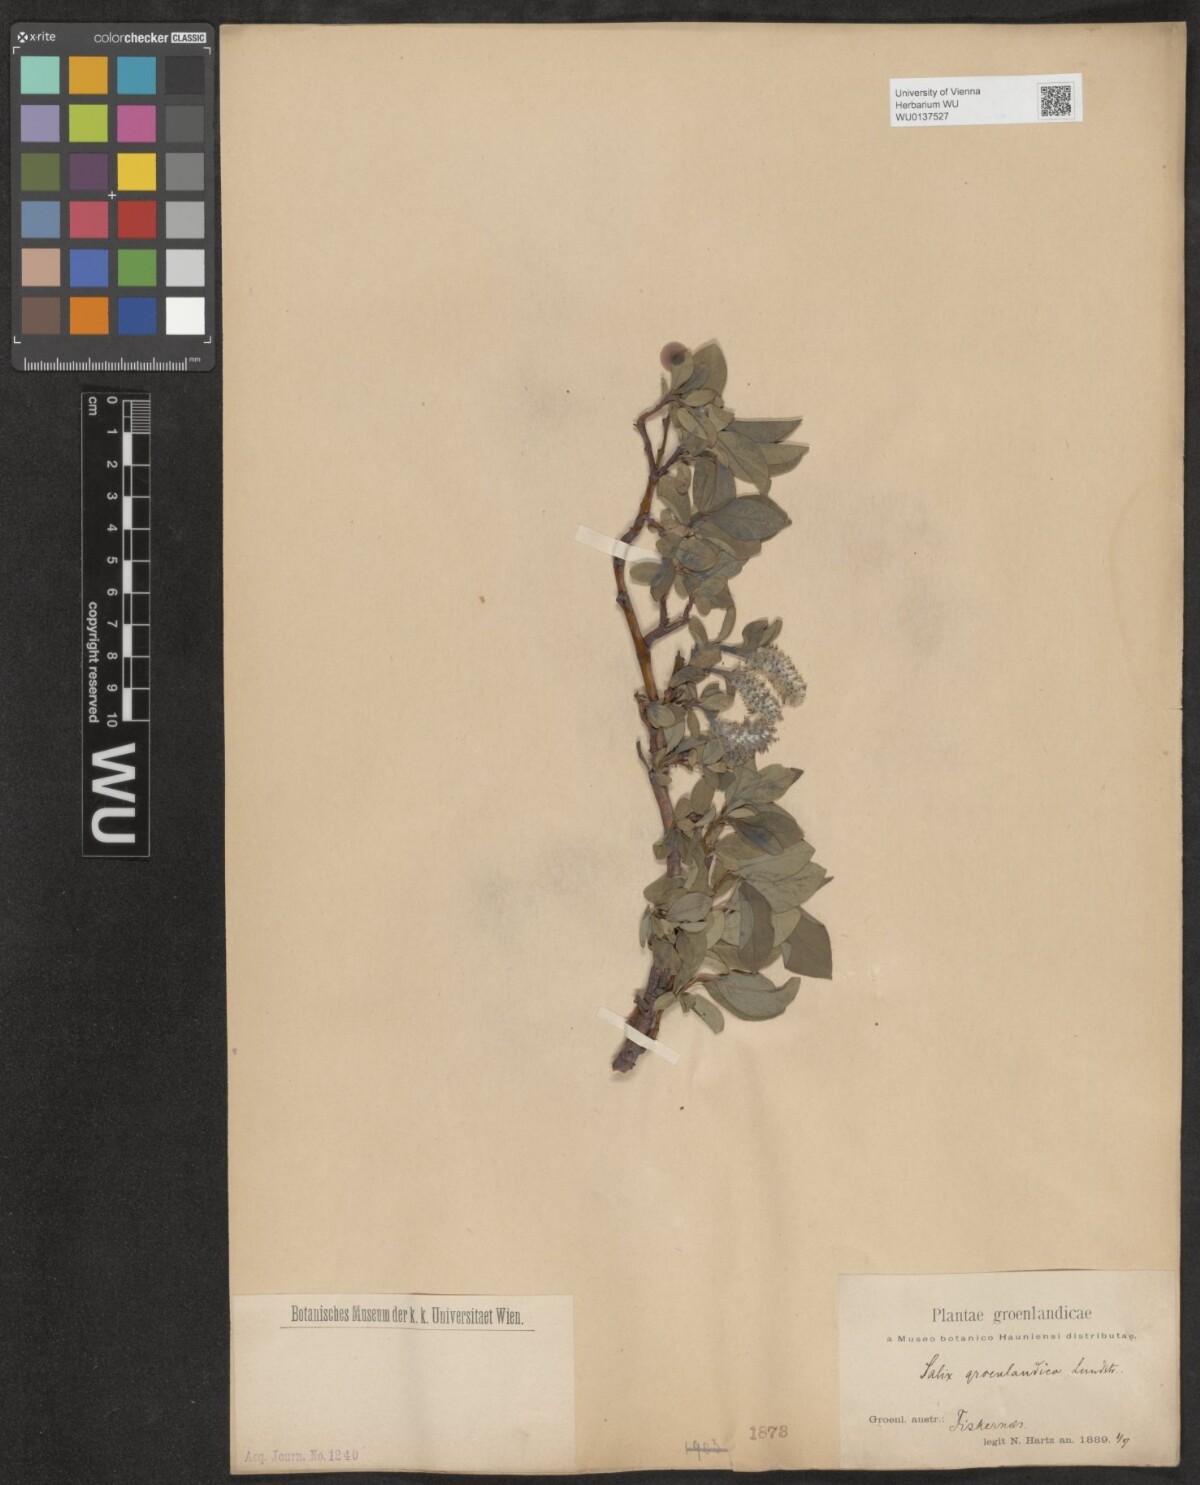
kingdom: Plantae
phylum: Tracheophyta
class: Magnoliopsida
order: Malpighiales
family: Salicaceae
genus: Salix
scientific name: Salix arctophila
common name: Greenland willow
